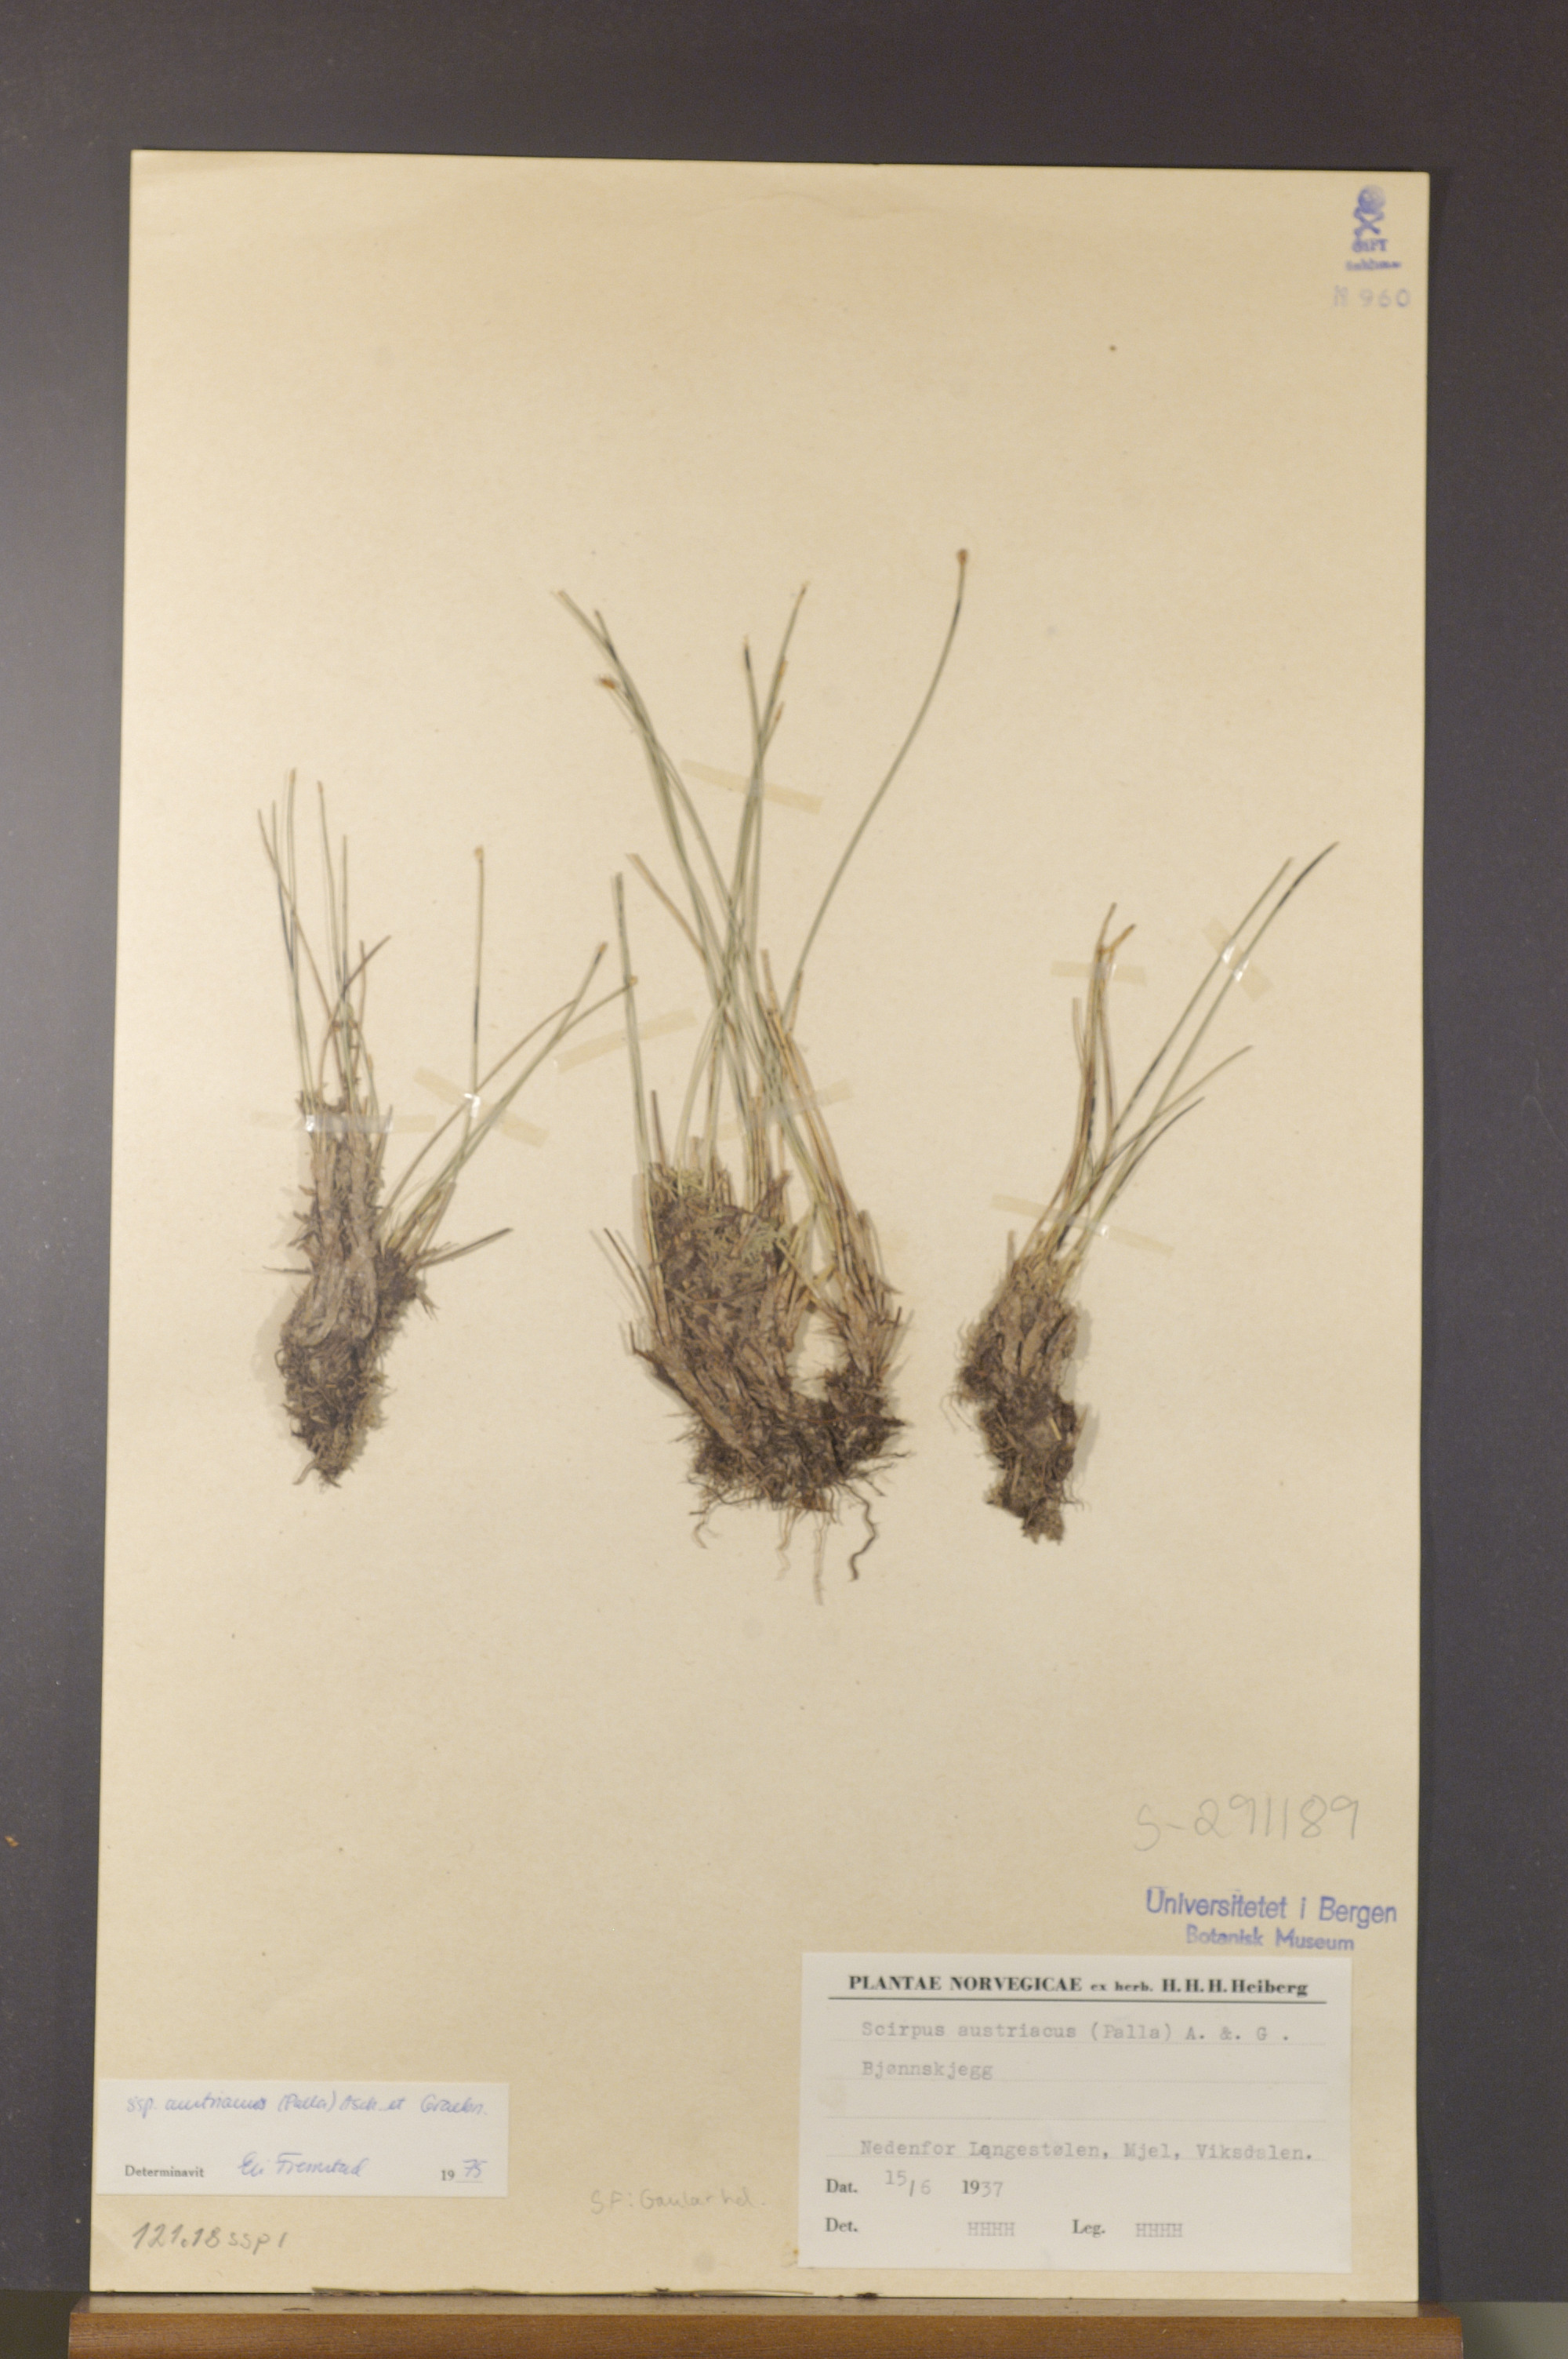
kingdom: Plantae
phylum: Tracheophyta
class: Liliopsida
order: Poales
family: Cyperaceae
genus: Trichophorum
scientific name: Trichophorum cespitosum
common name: Cespitose bulrush
